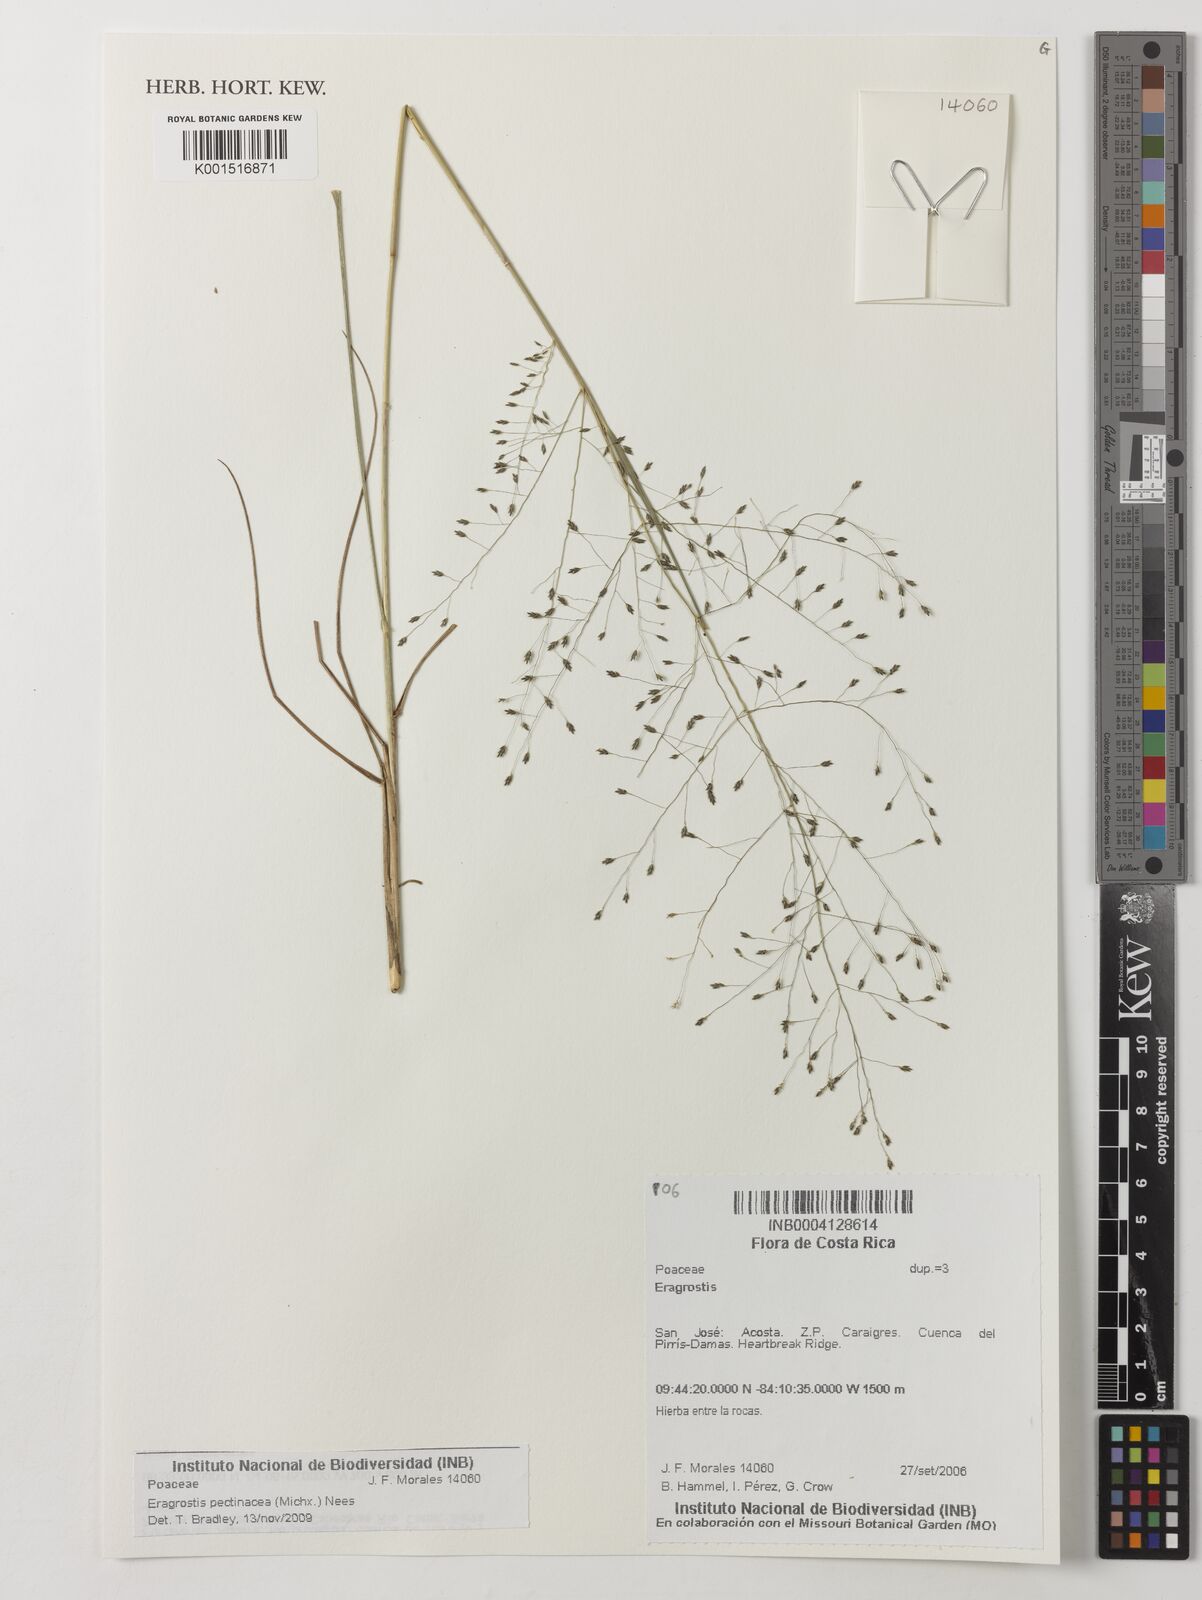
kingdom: Plantae
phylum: Tracheophyta
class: Liliopsida
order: Poales
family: Poaceae
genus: Eragrostis
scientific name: Eragrostis pectinacea
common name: Tufted lovegrass
